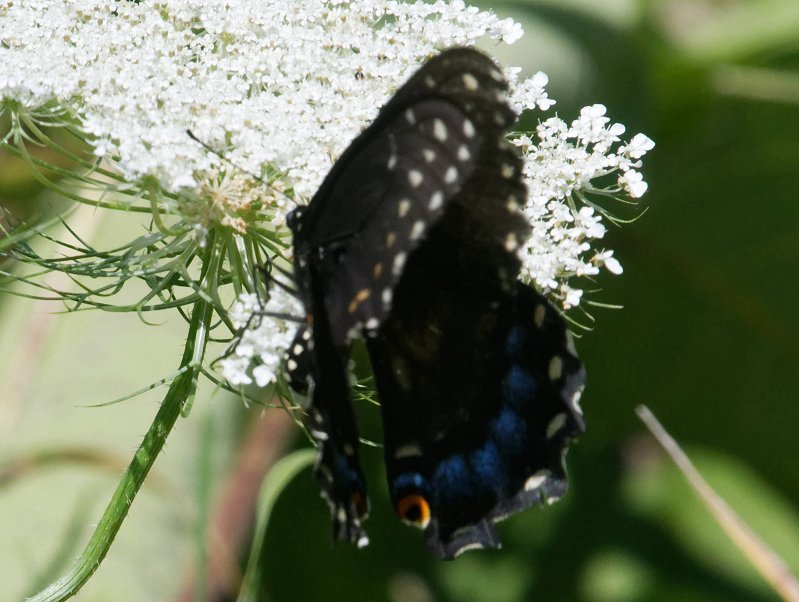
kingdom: Animalia
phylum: Arthropoda
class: Insecta
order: Lepidoptera
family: Papilionidae
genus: Papilio
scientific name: Papilio polyxenes
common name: Black Swallowtail
